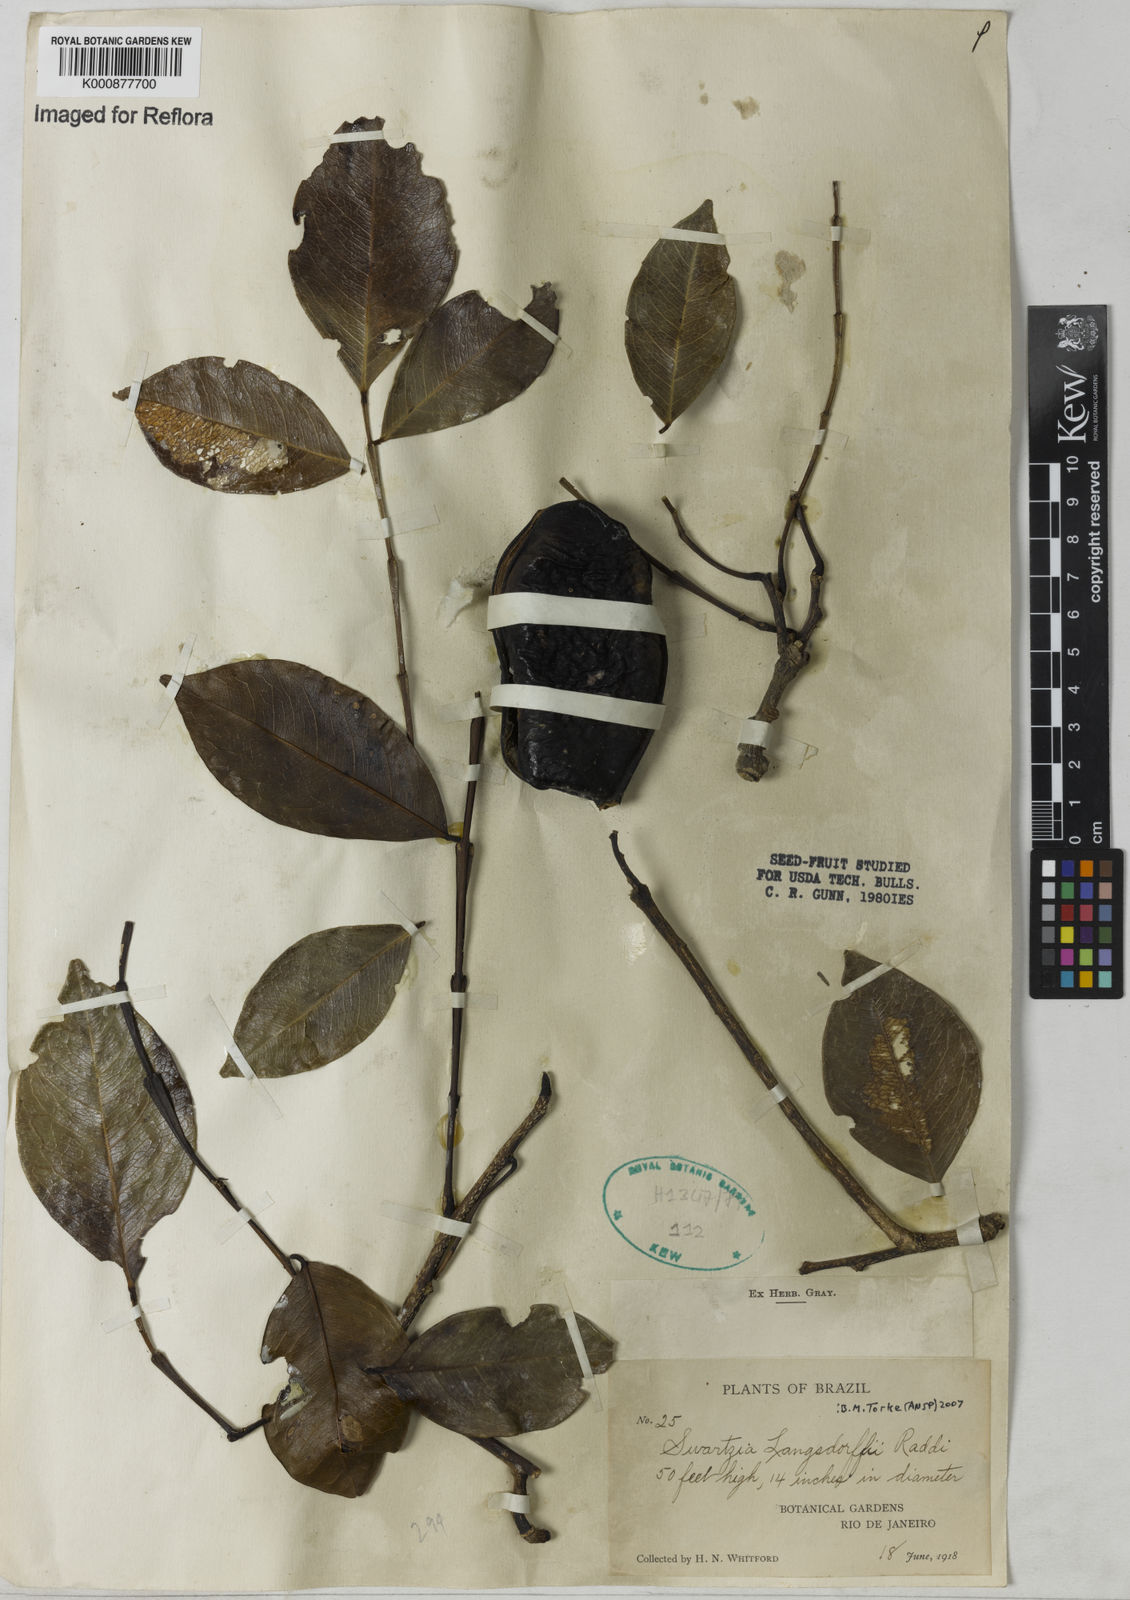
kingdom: Plantae
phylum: Tracheophyta
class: Magnoliopsida
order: Fabales
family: Fabaceae
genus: Swartzia
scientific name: Swartzia langsdorffii
